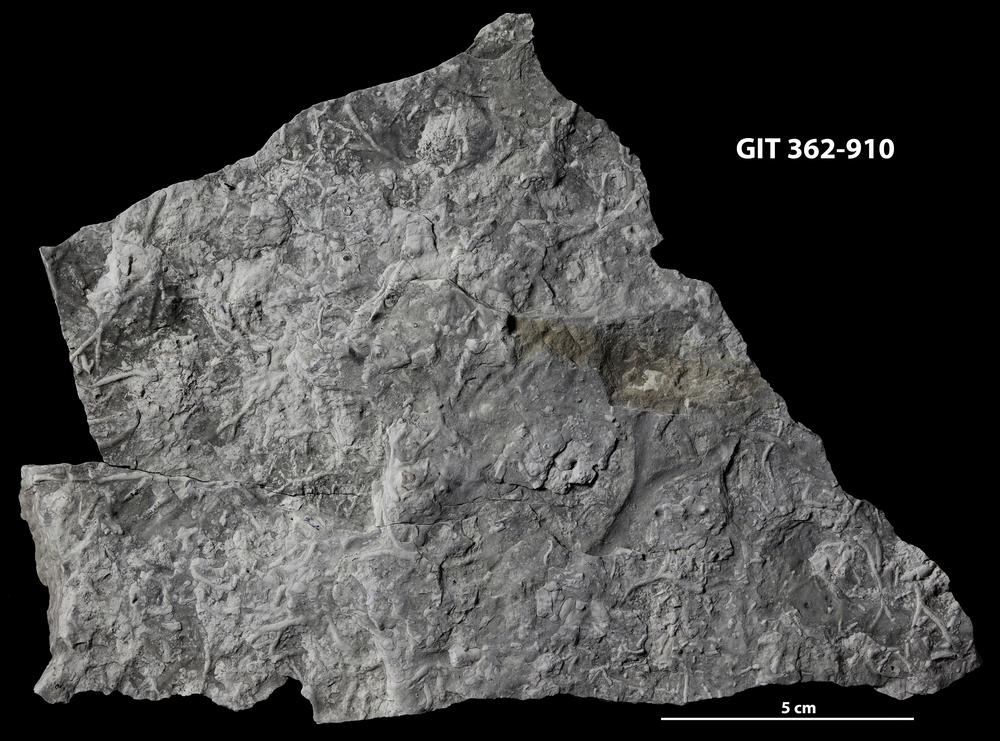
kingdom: Animalia
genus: Chondrites
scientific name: Chondrites
